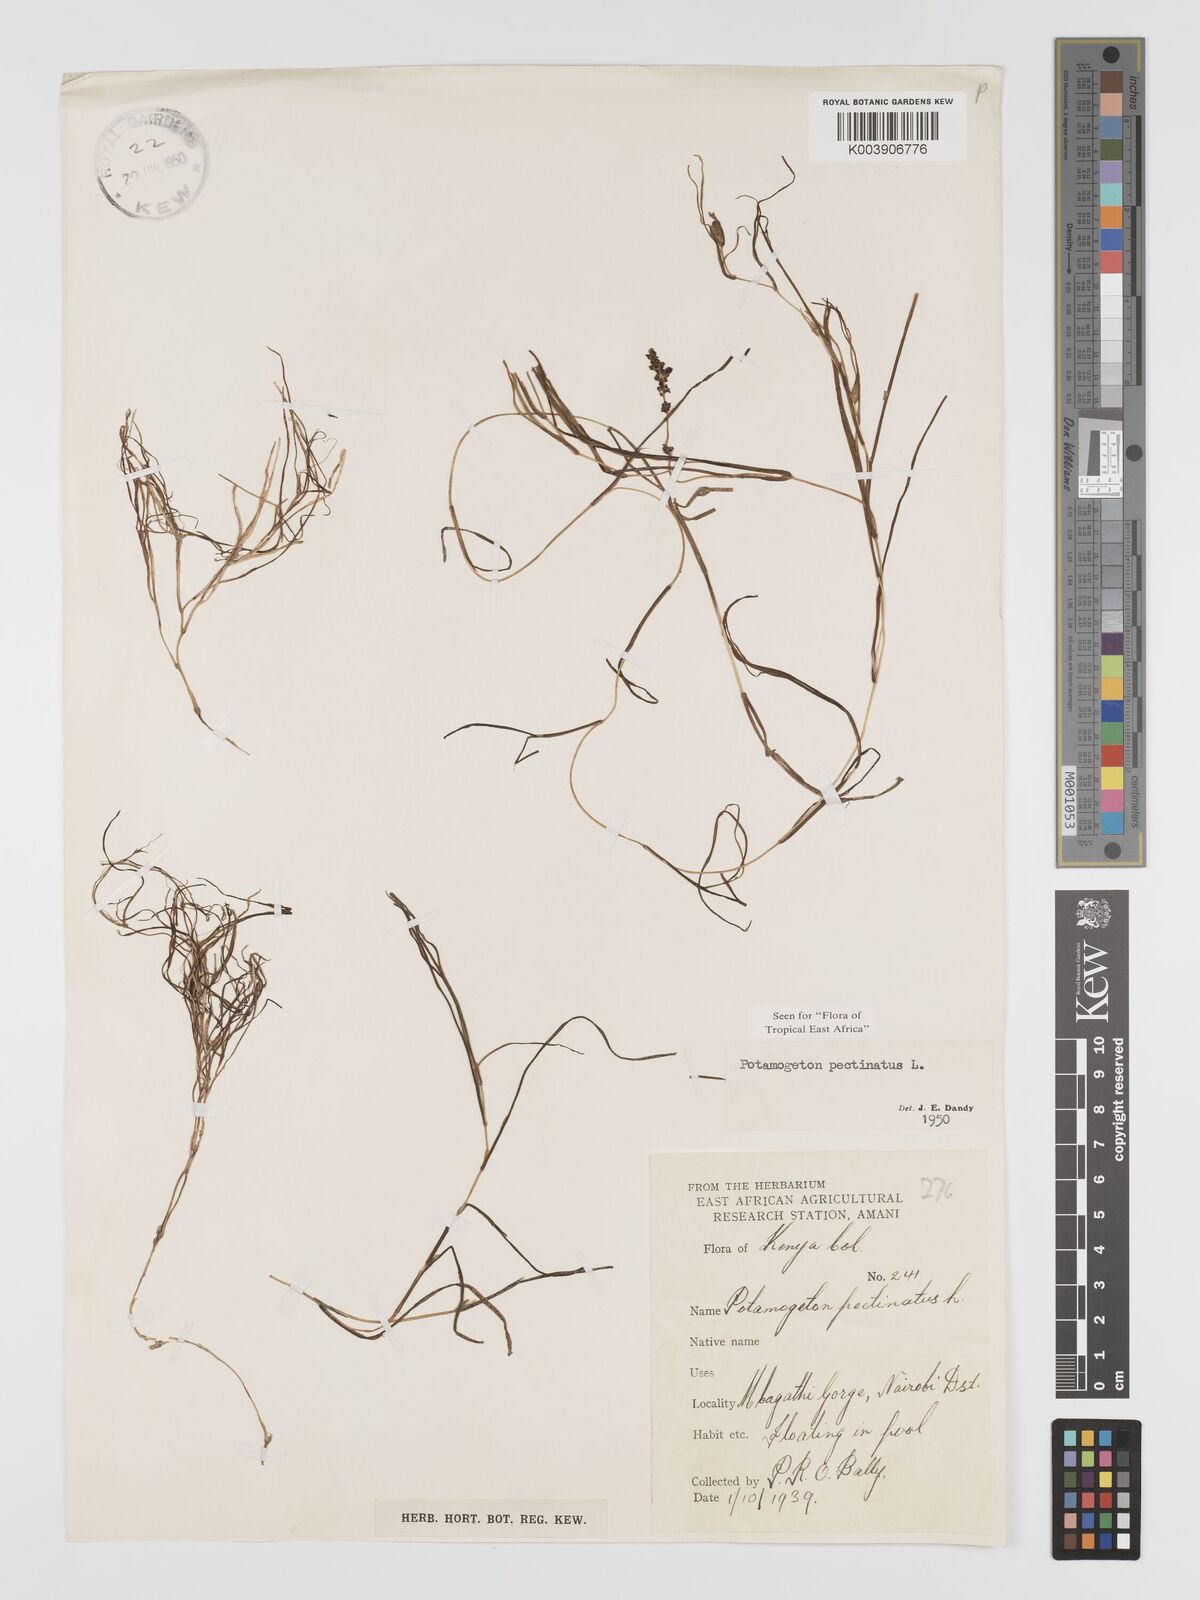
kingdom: Plantae
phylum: Tracheophyta
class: Liliopsida
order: Alismatales
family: Potamogetonaceae
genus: Stuckenia
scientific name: Stuckenia pectinata
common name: Sago pondweed
